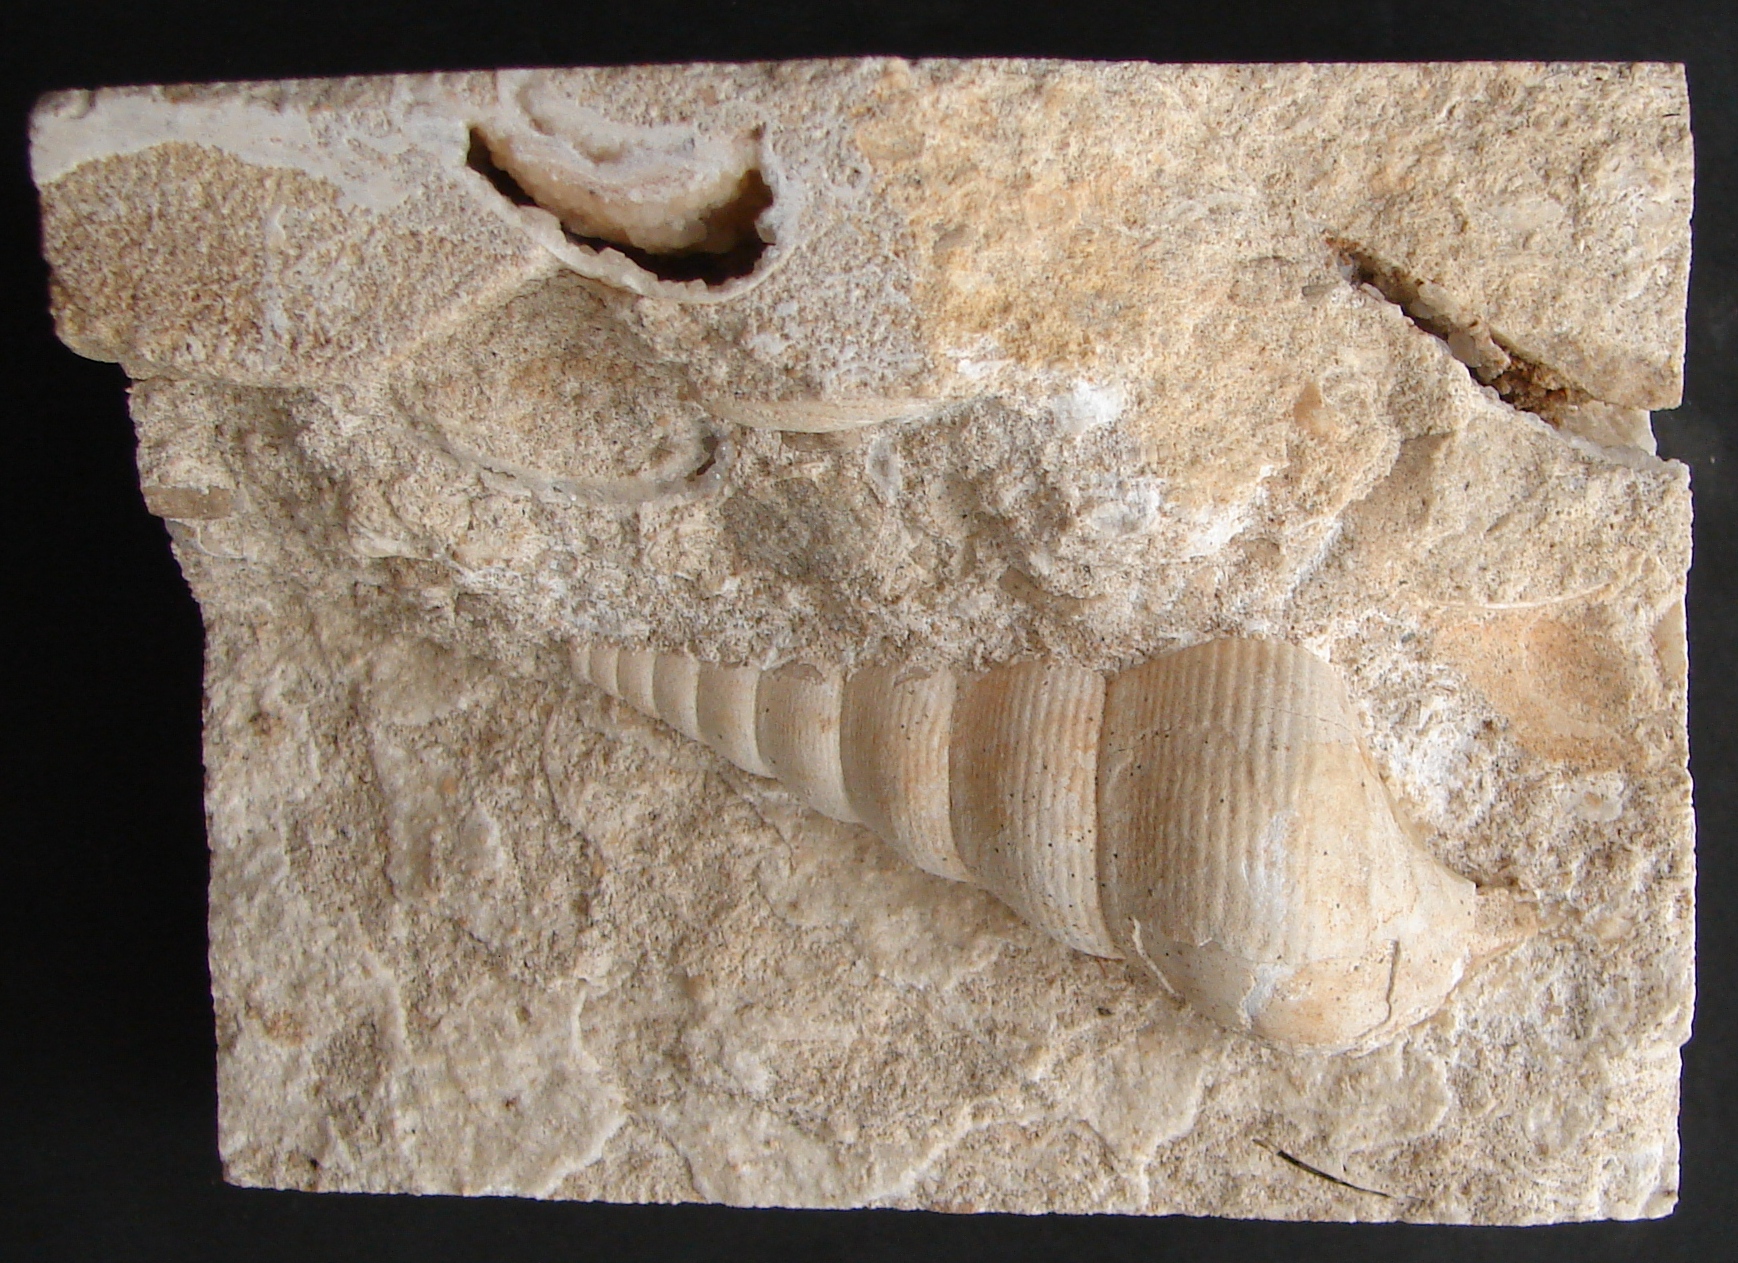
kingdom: Animalia
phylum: Mollusca
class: Gastropoda
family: Pseudomelaniidae
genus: Bourgetia
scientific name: Bourgetia Turritella deshayesea
